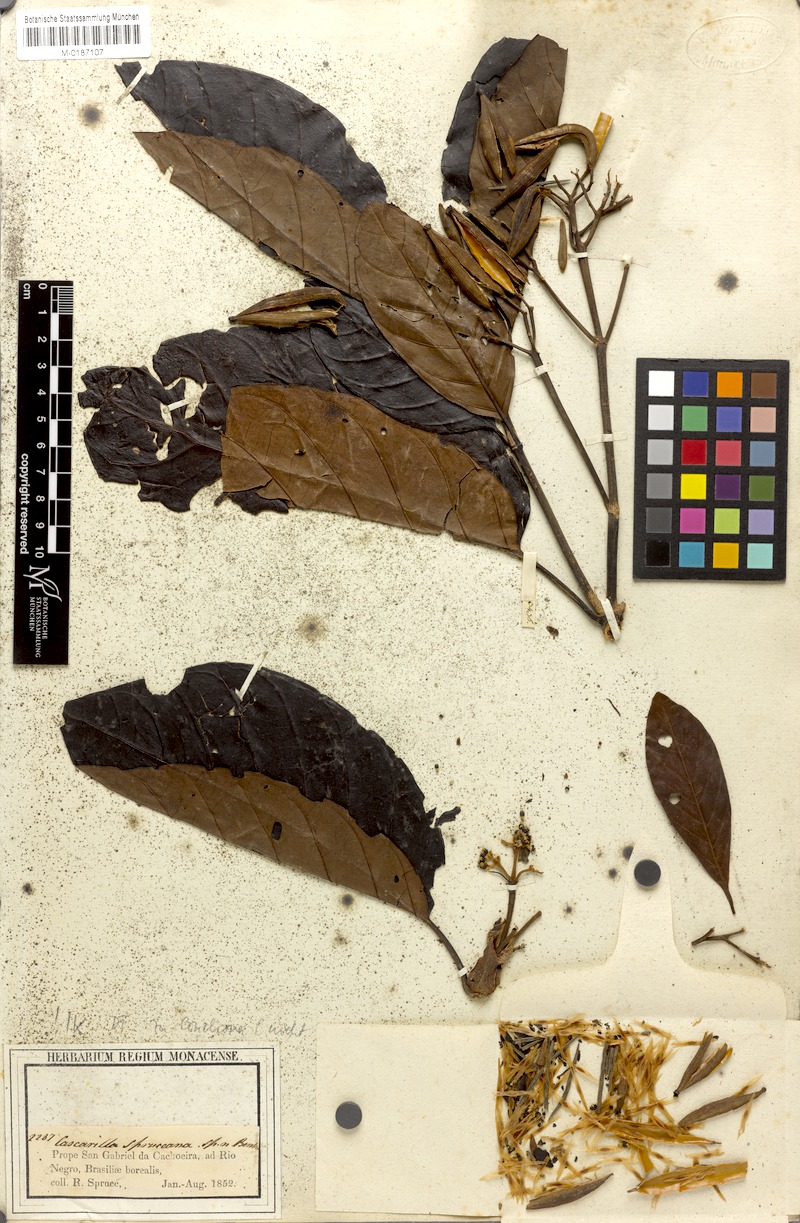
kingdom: Plantae
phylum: Tracheophyta
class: Magnoliopsida
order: Gentianales
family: Rubiaceae
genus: Macrocnemum
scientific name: Macrocnemum roseum
